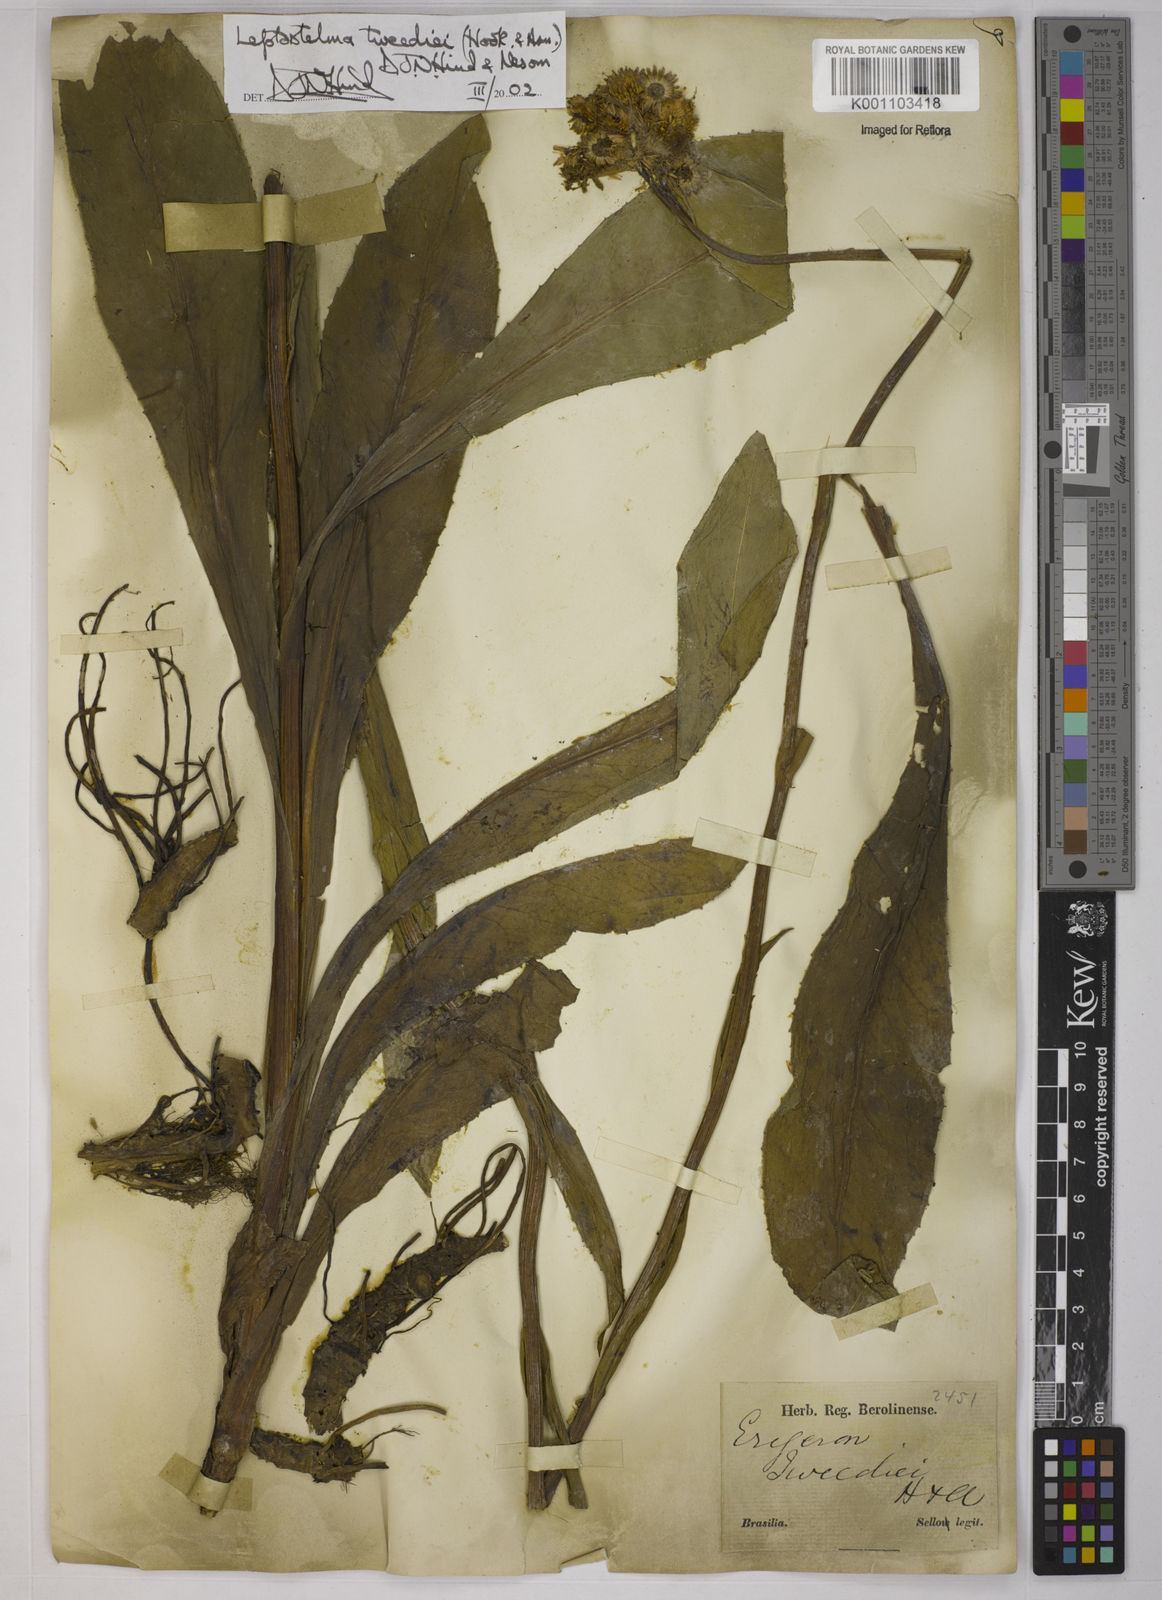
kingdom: Plantae
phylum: Tracheophyta
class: Magnoliopsida
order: Asterales
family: Asteraceae
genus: Leptostelma
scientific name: Leptostelma tweediei
